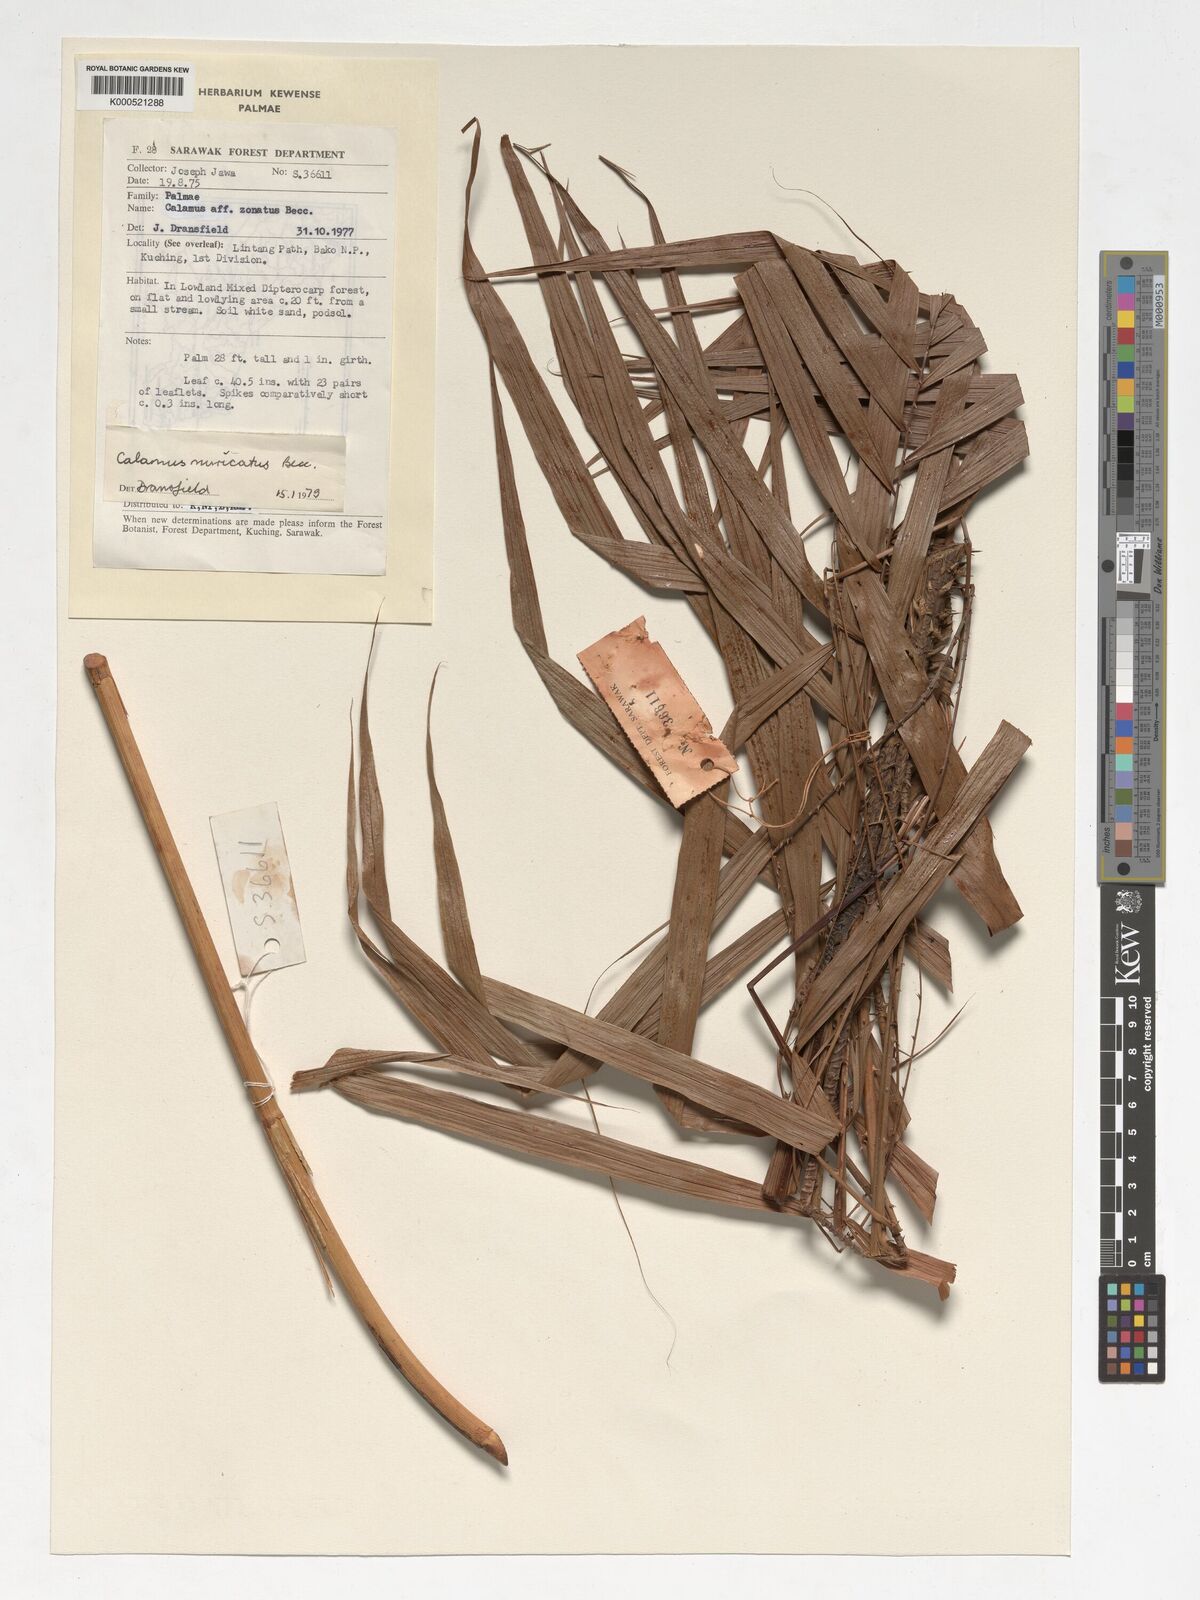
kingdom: Plantae
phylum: Tracheophyta
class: Liliopsida
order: Arecales
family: Arecaceae
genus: Calamus
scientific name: Calamus muricatus
